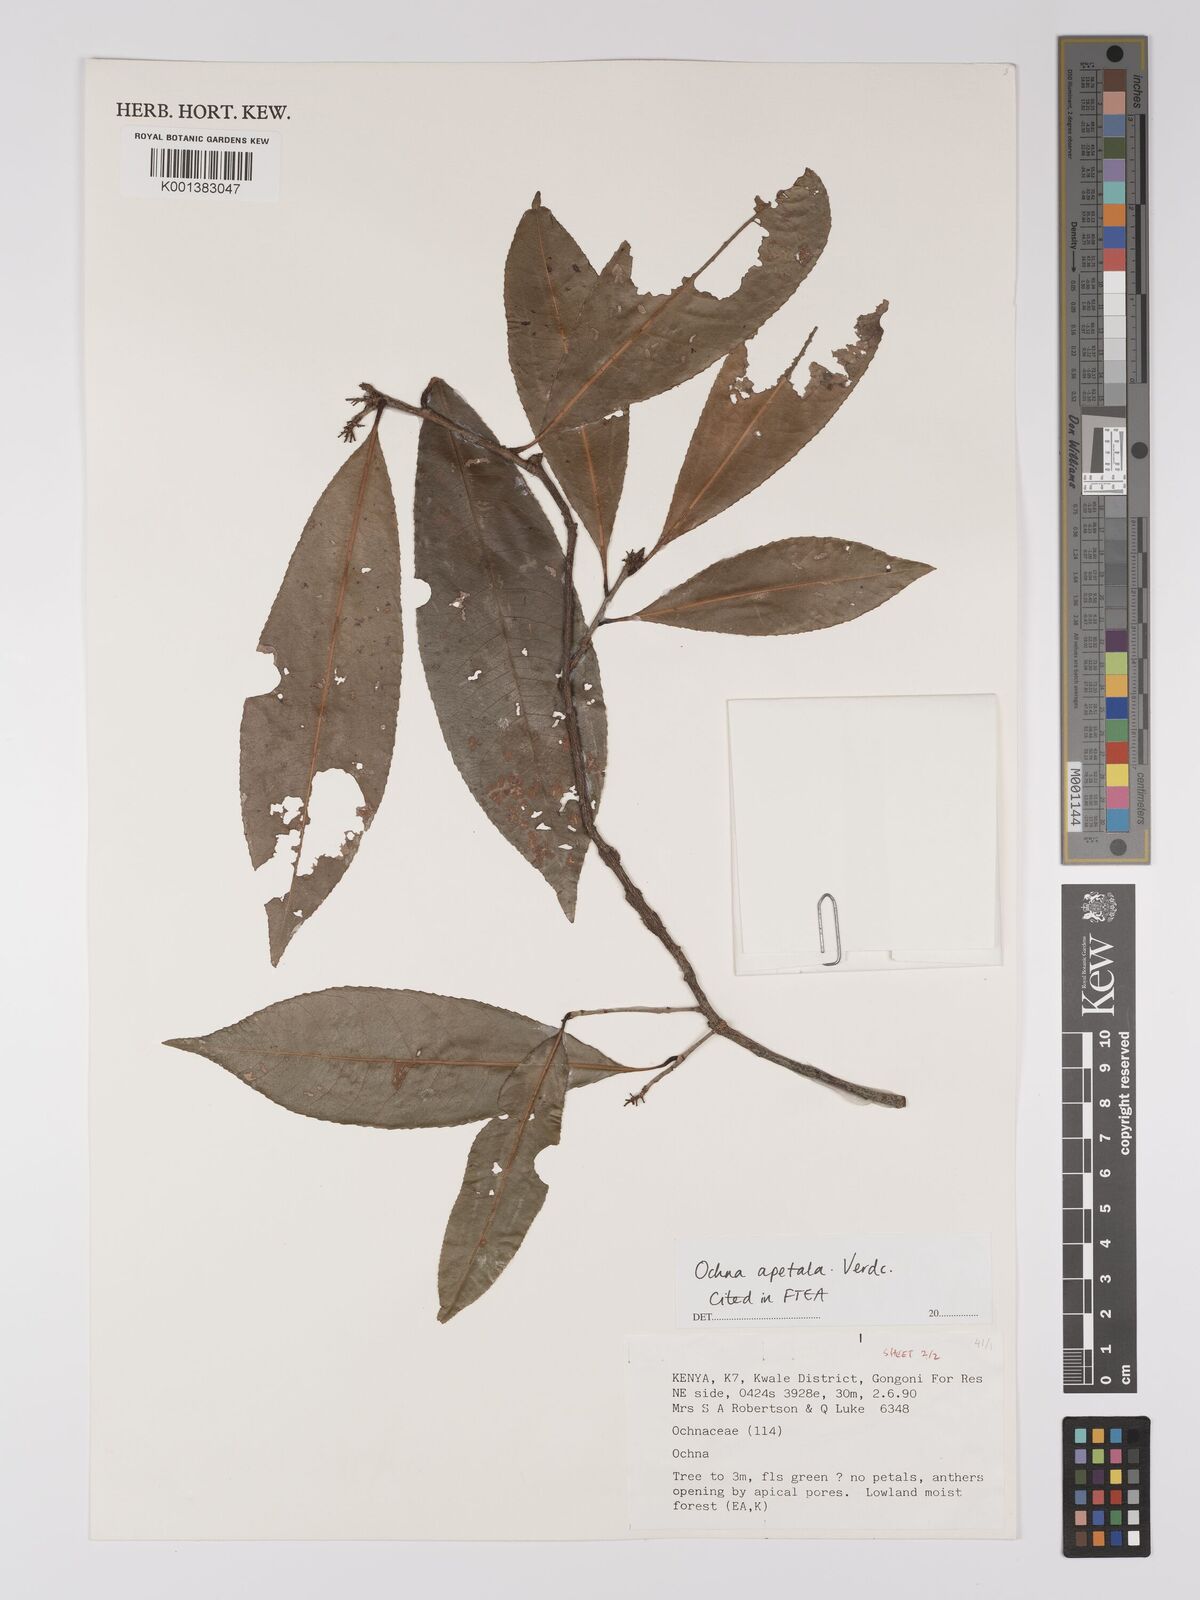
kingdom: Plantae
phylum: Tracheophyta
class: Magnoliopsida
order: Malpighiales
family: Ochnaceae
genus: Ochna
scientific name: Ochna apetala
